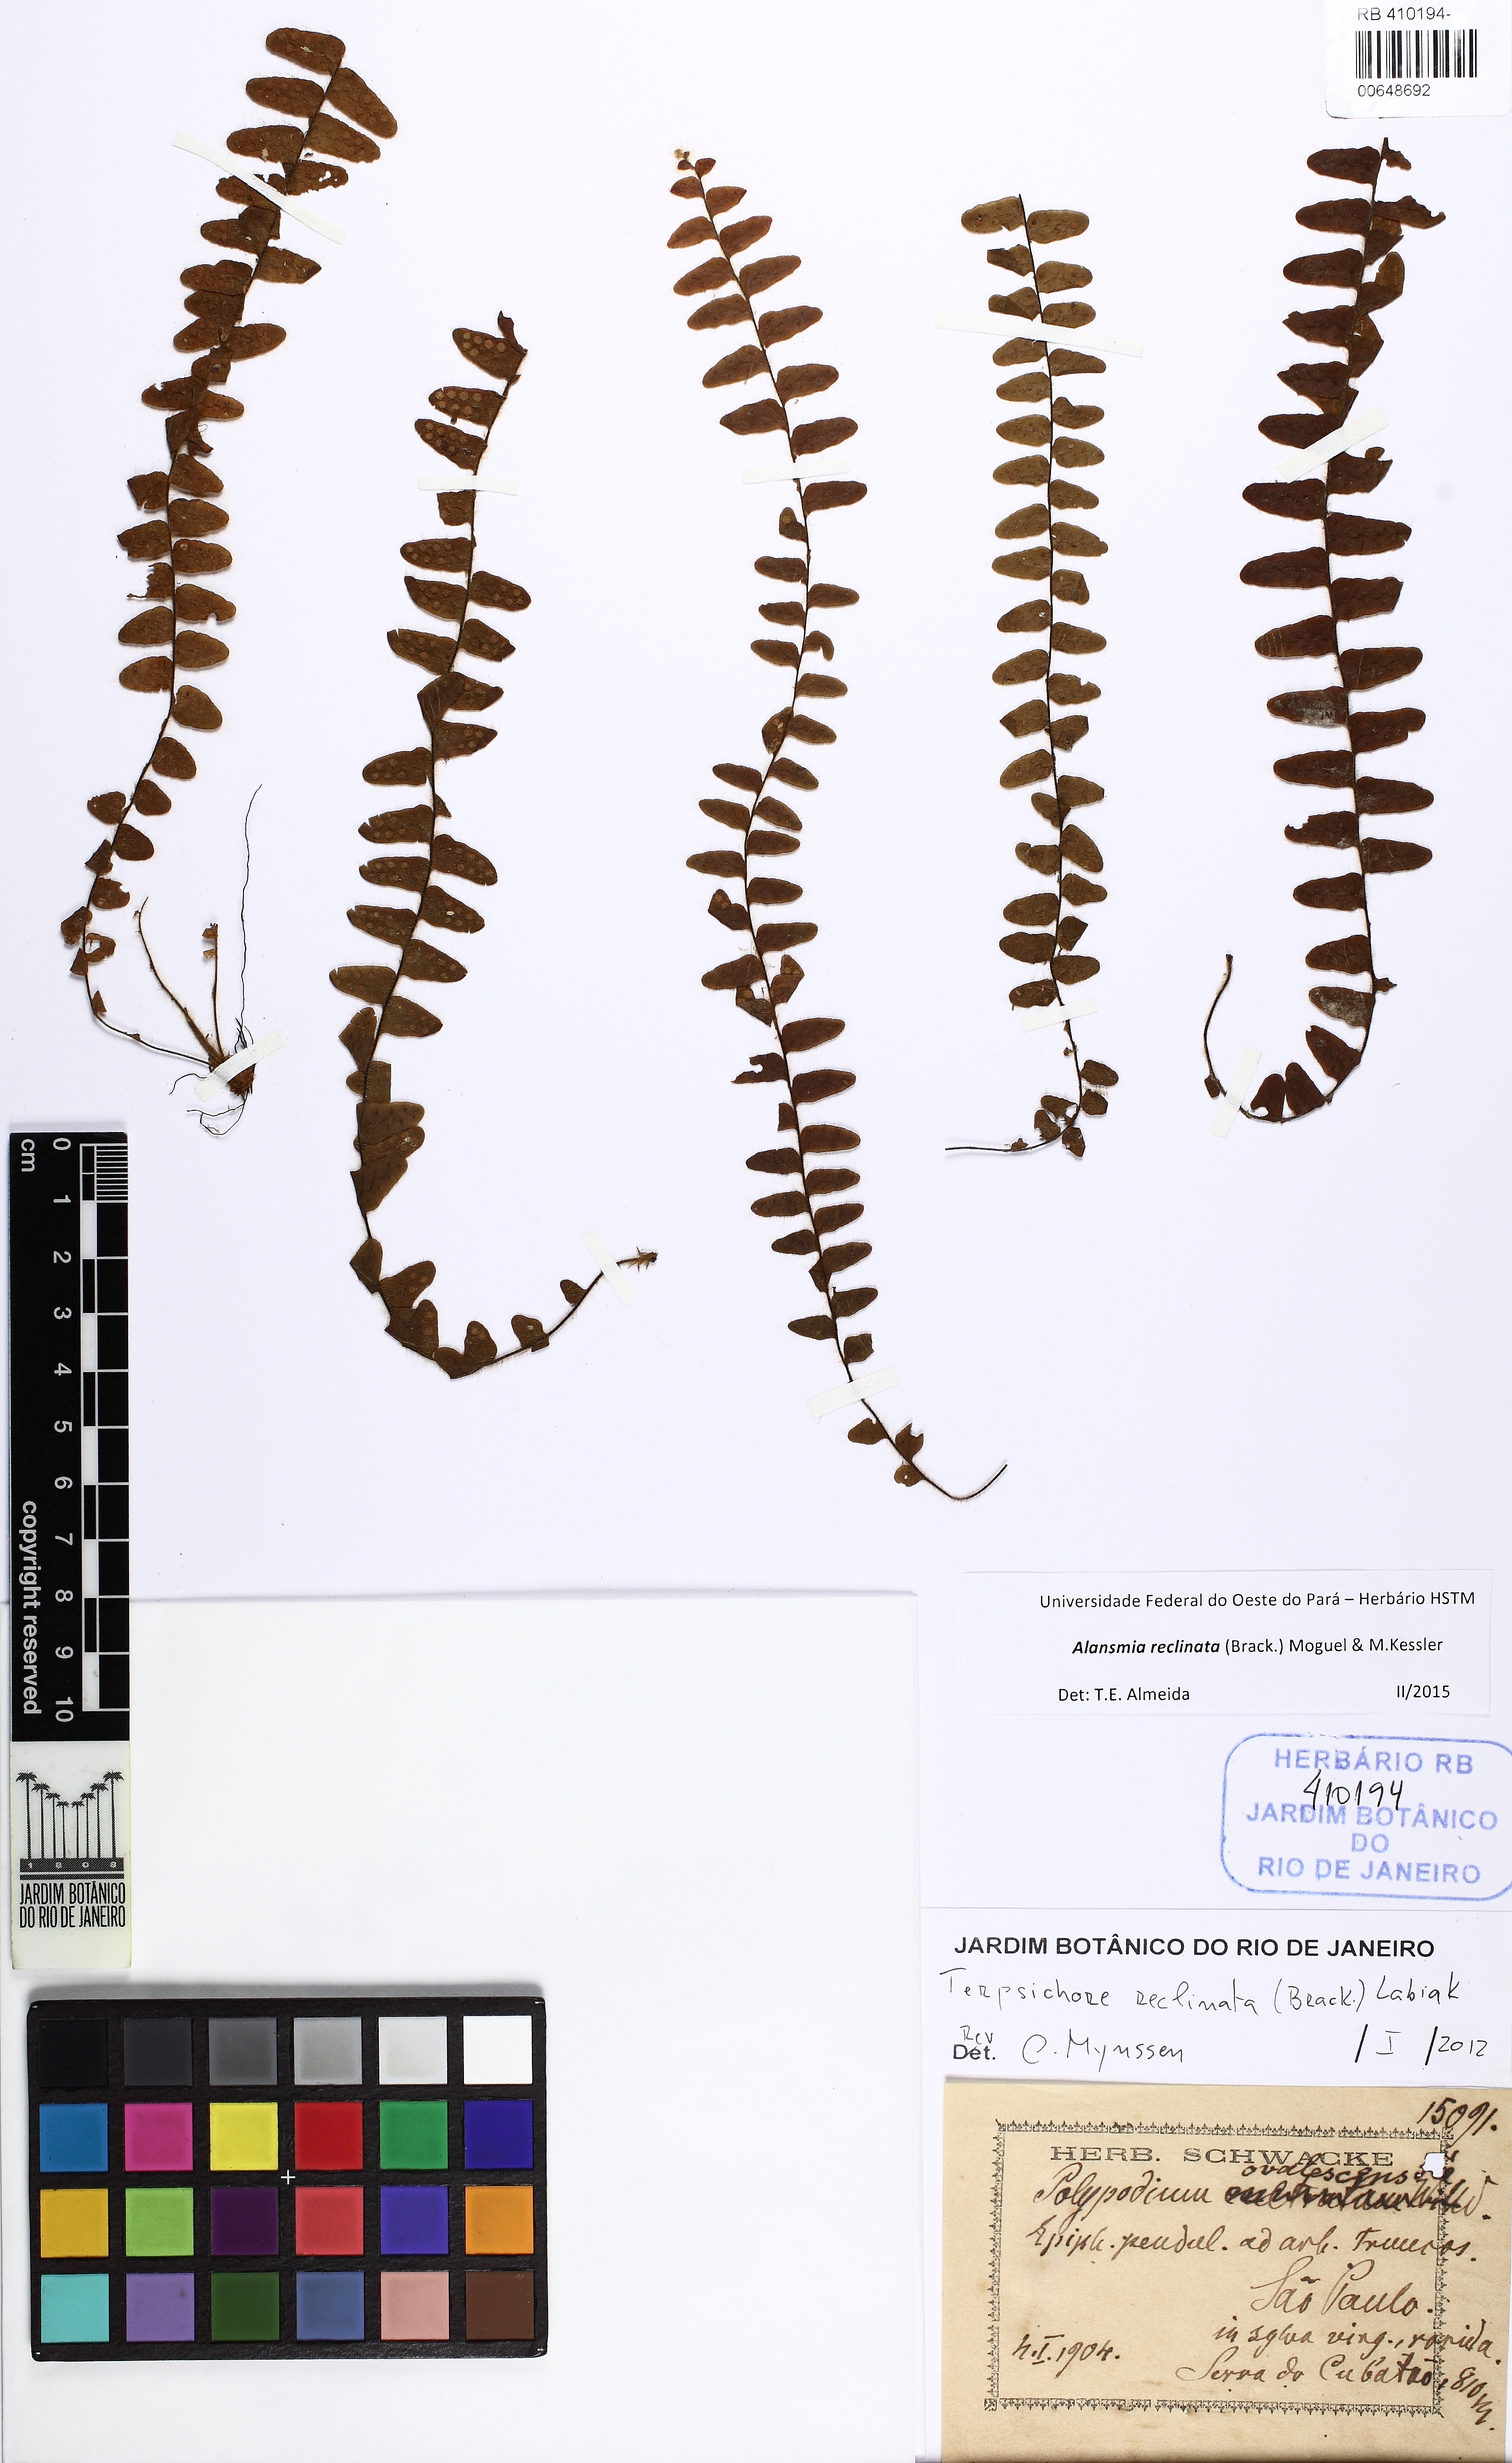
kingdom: Plantae
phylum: Tracheophyta
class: Polypodiopsida
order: Polypodiales
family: Polypodiaceae
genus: Alansmia
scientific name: Alansmia reclinata
